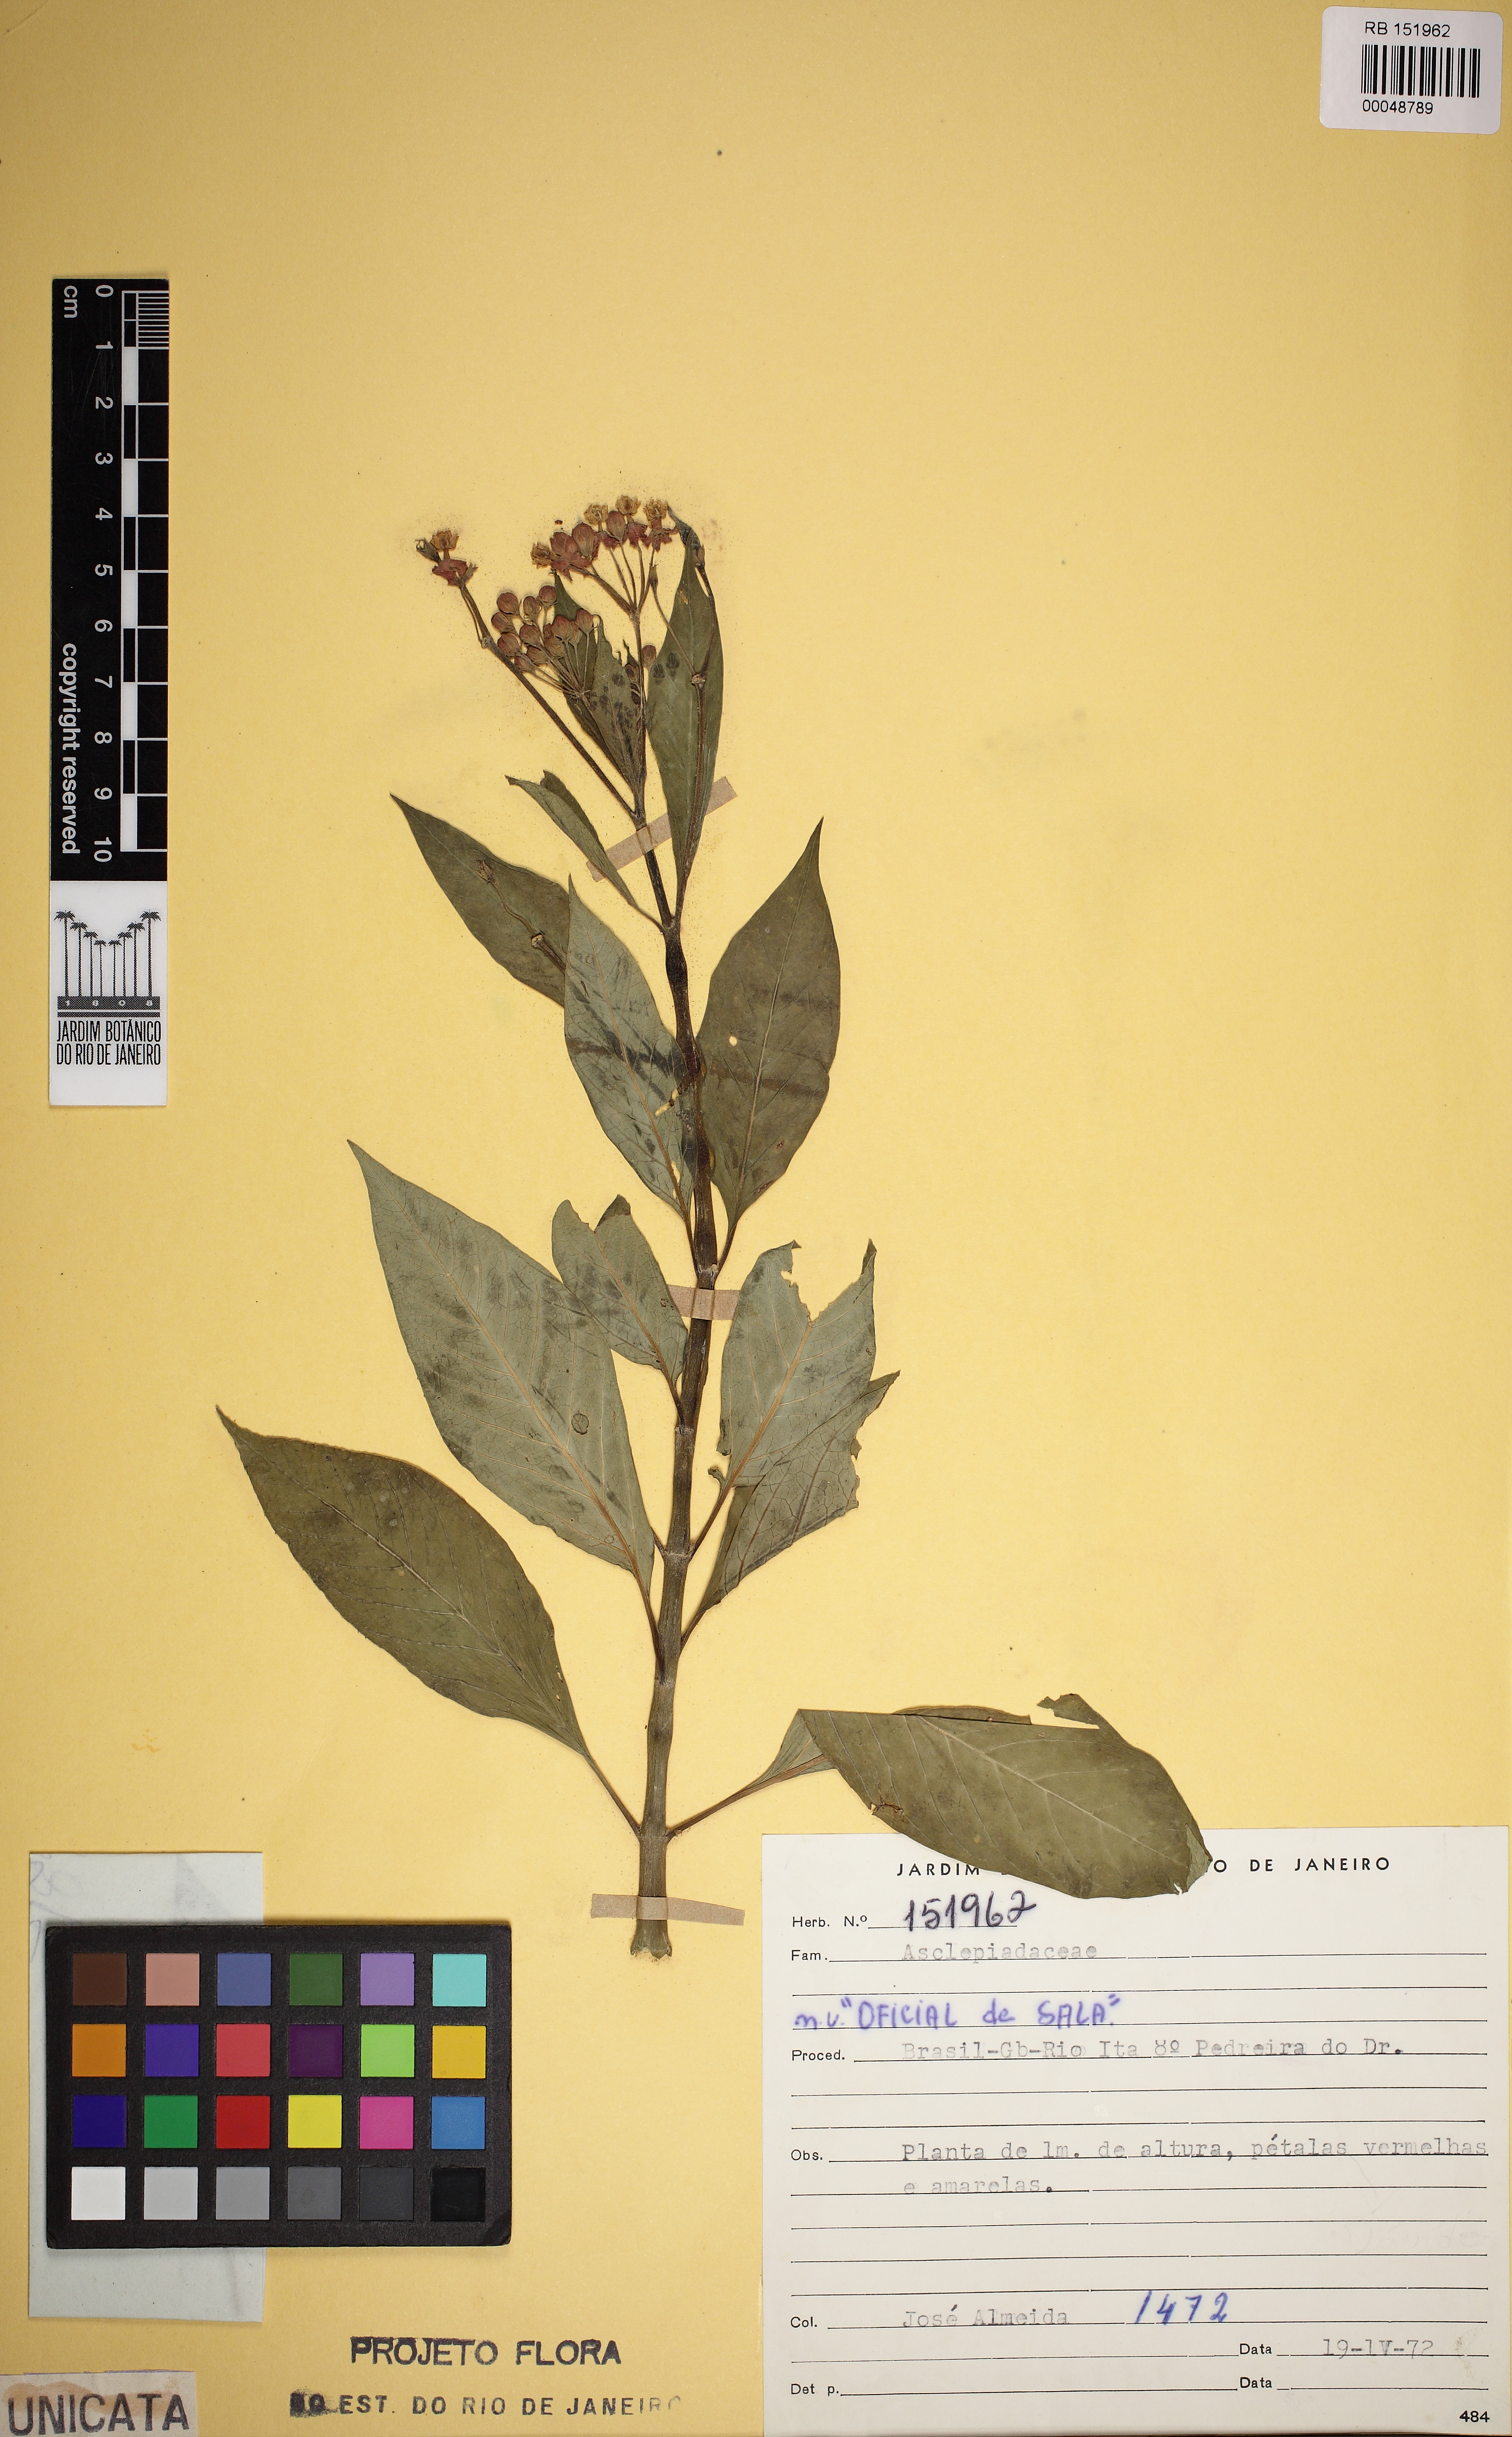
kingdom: Plantae
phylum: Tracheophyta
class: Magnoliopsida
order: Gentianales
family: Apocynaceae
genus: Asclepias
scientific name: Asclepias curassavica
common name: Bloodflower
